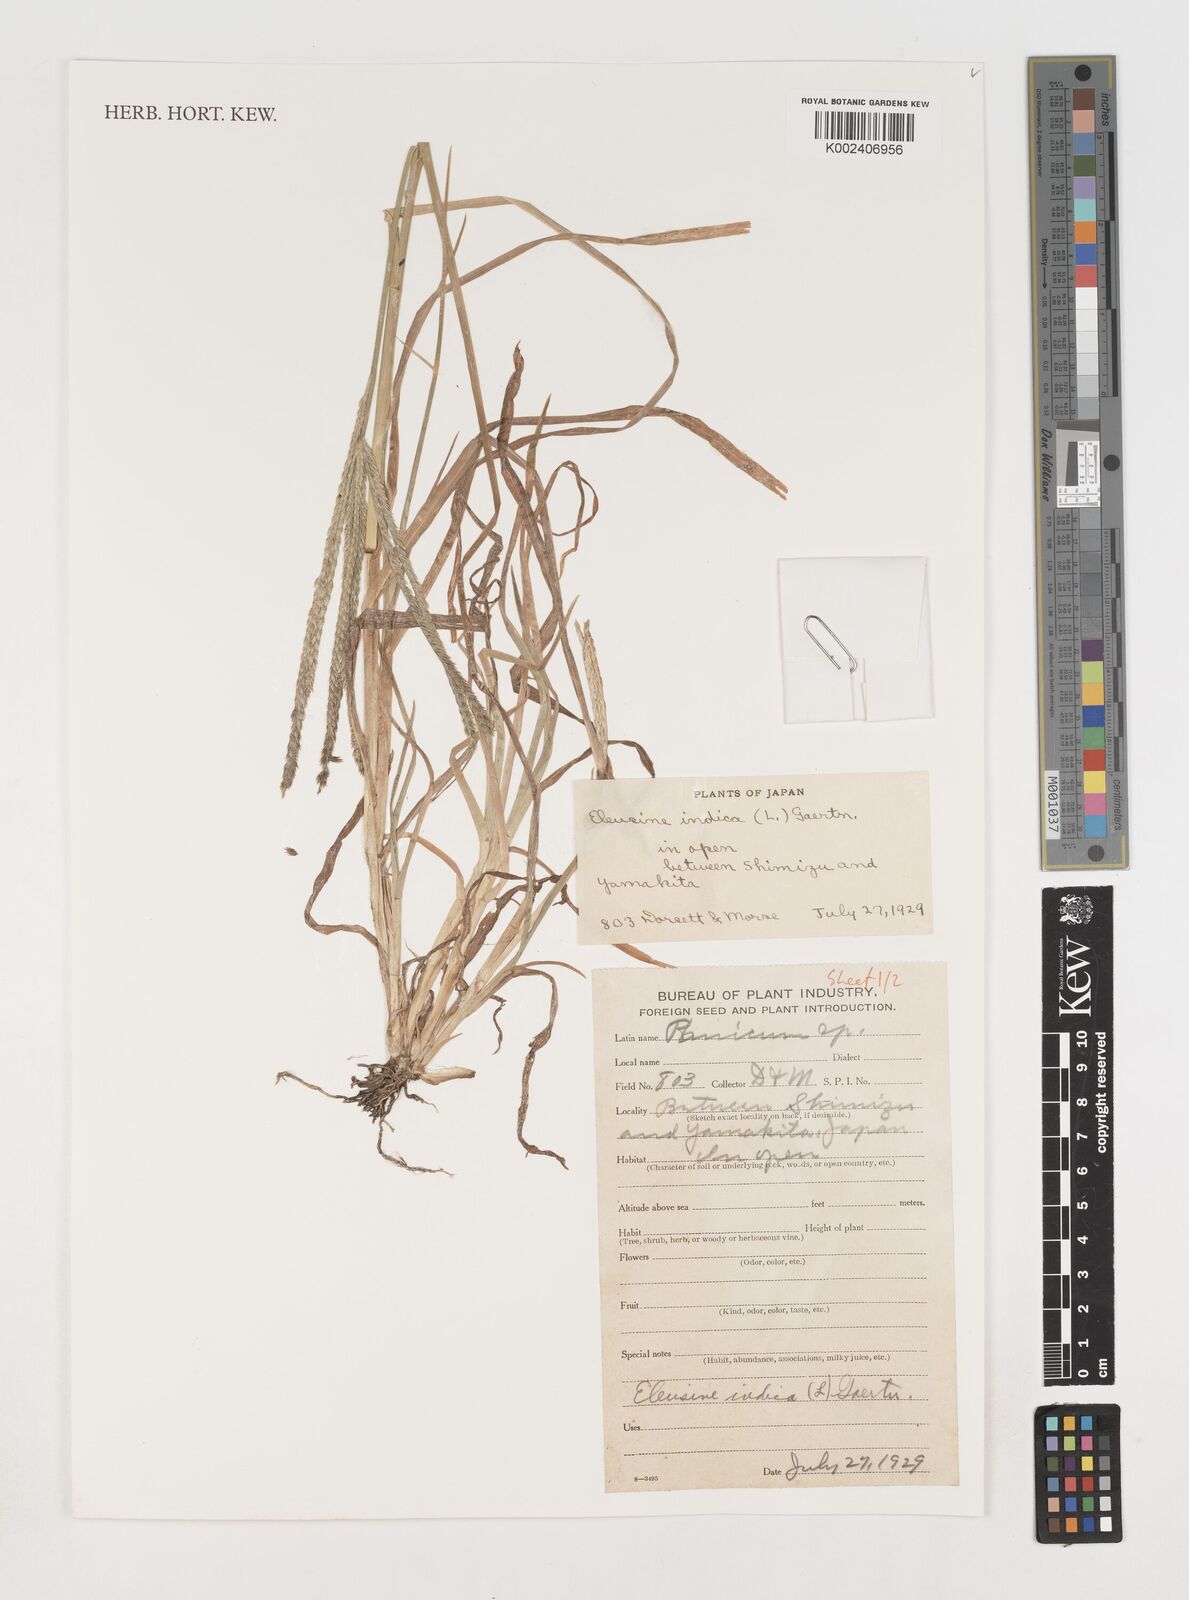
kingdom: Plantae
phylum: Tracheophyta
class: Liliopsida
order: Poales
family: Poaceae
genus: Eleusine
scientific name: Eleusine indica
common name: Yard-grass
